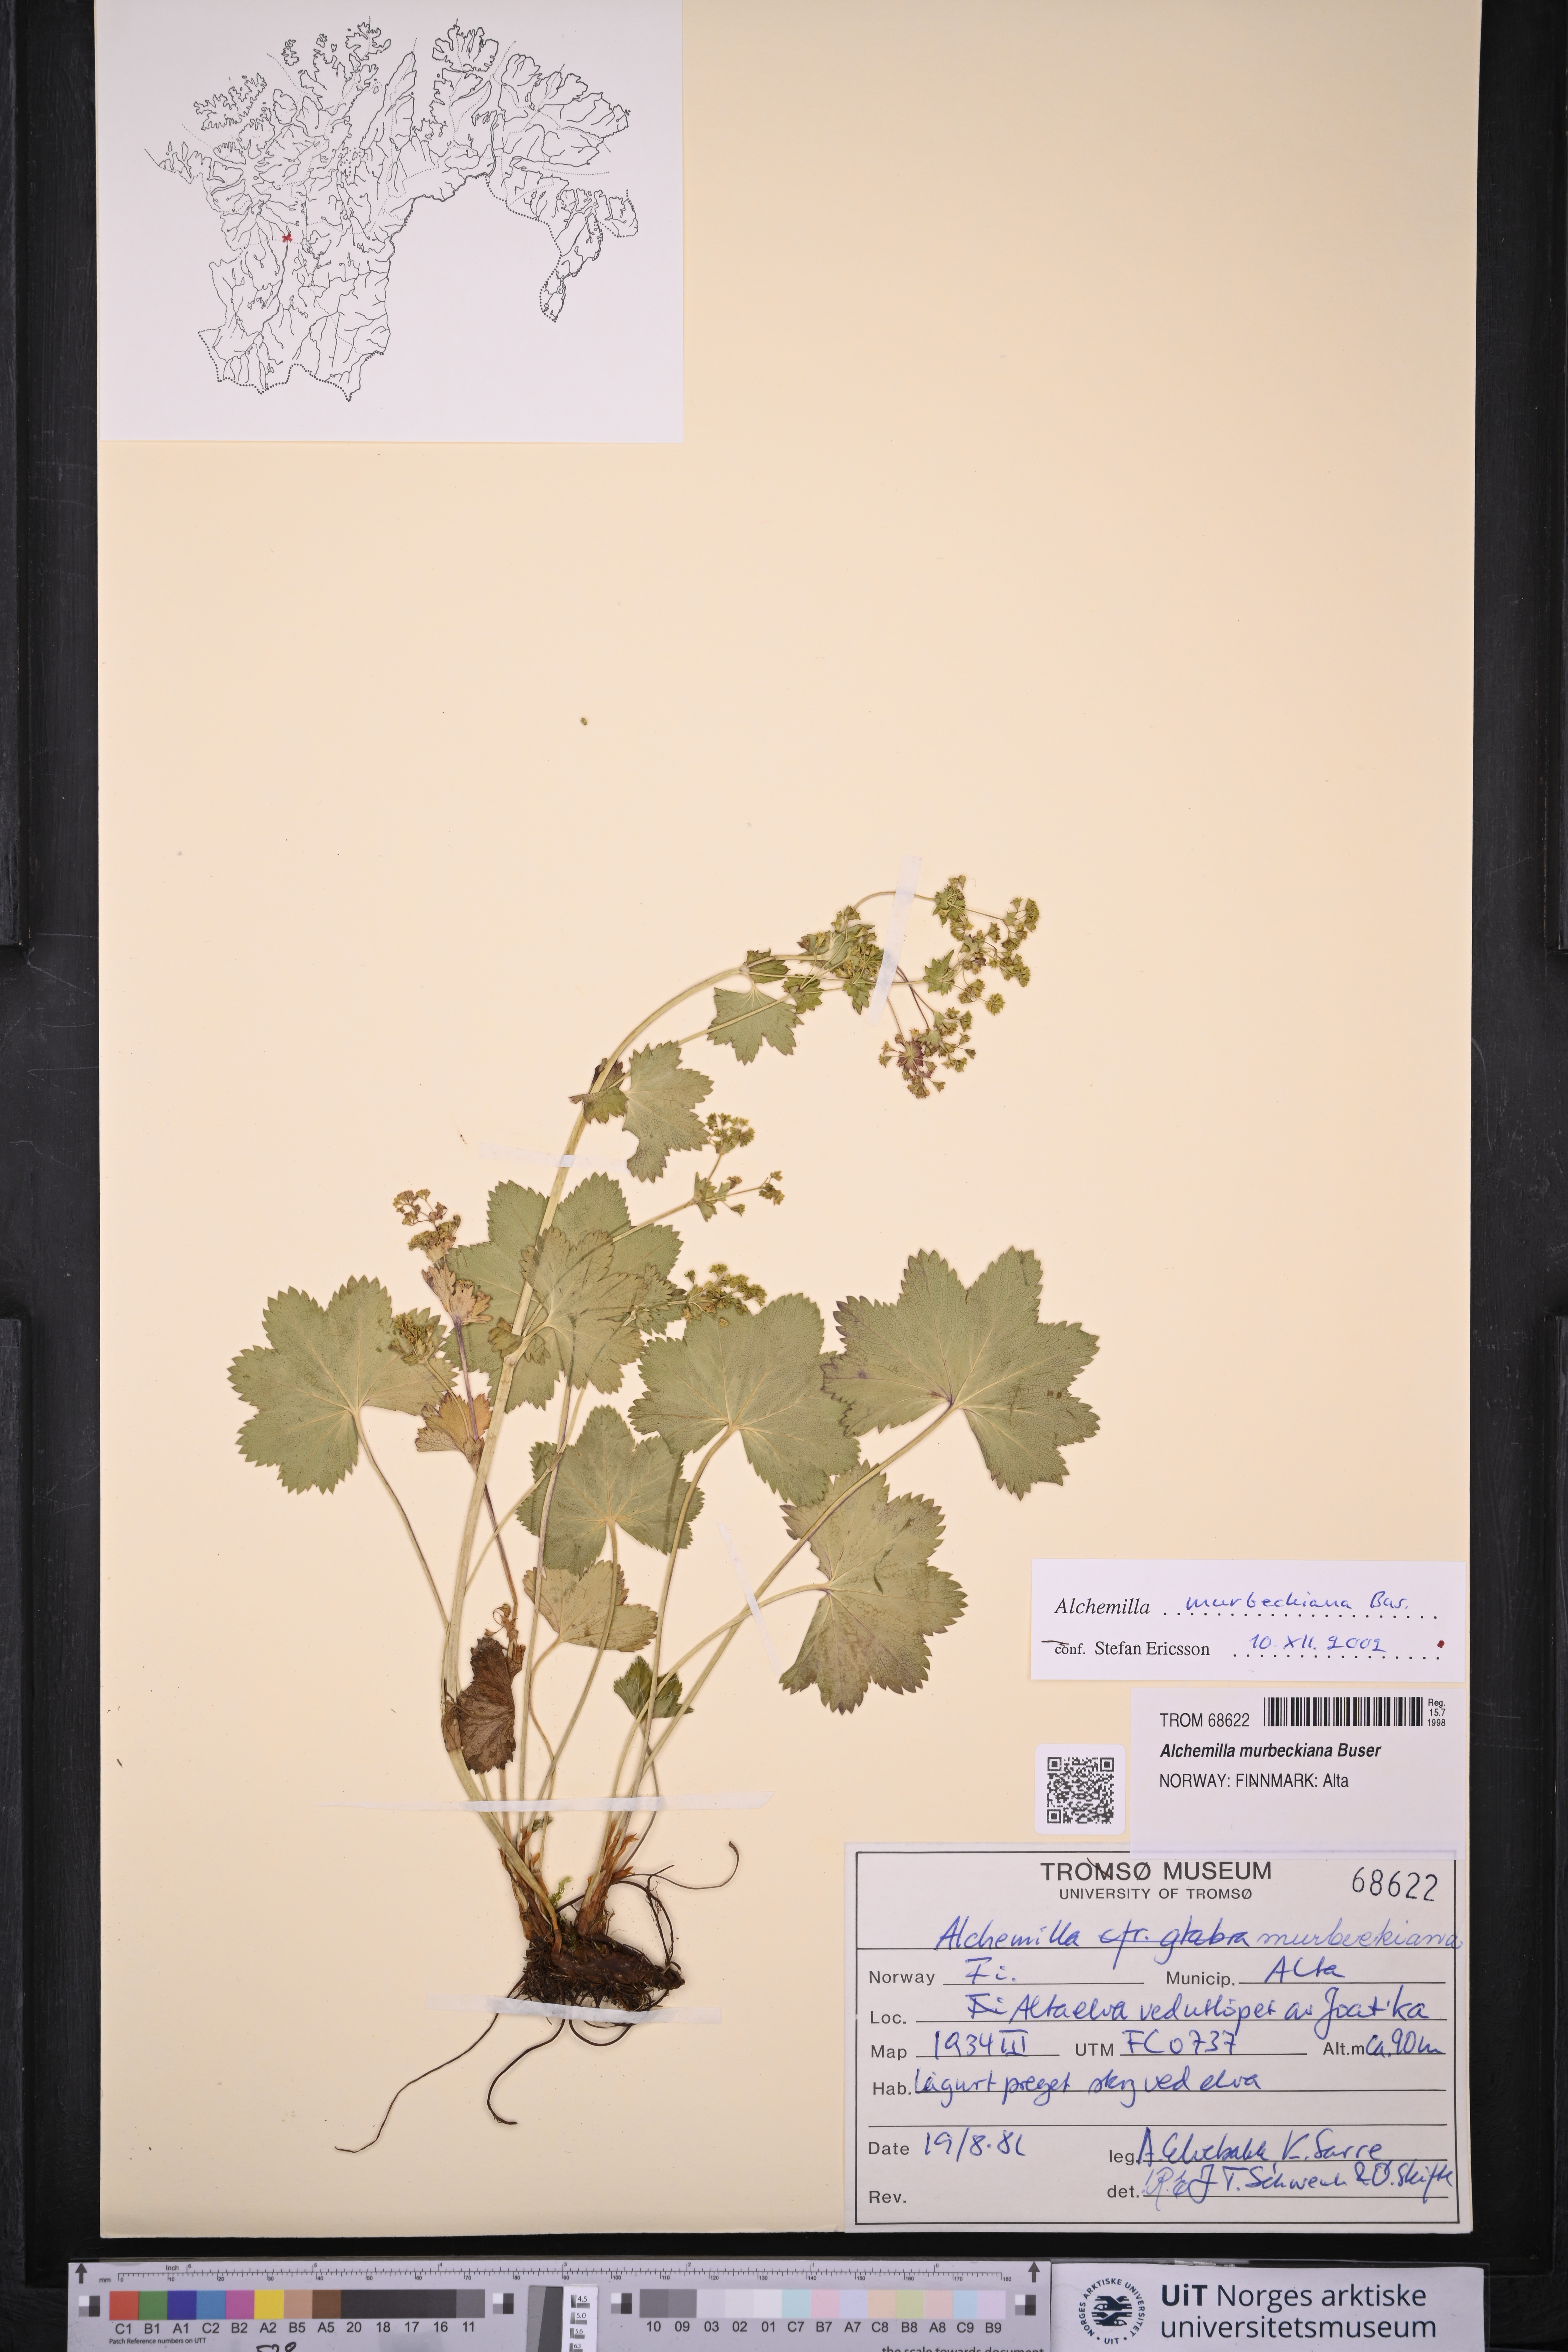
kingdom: Plantae
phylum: Tracheophyta
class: Magnoliopsida
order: Rosales
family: Rosaceae
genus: Alchemilla
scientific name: Alchemilla murbeckiana
